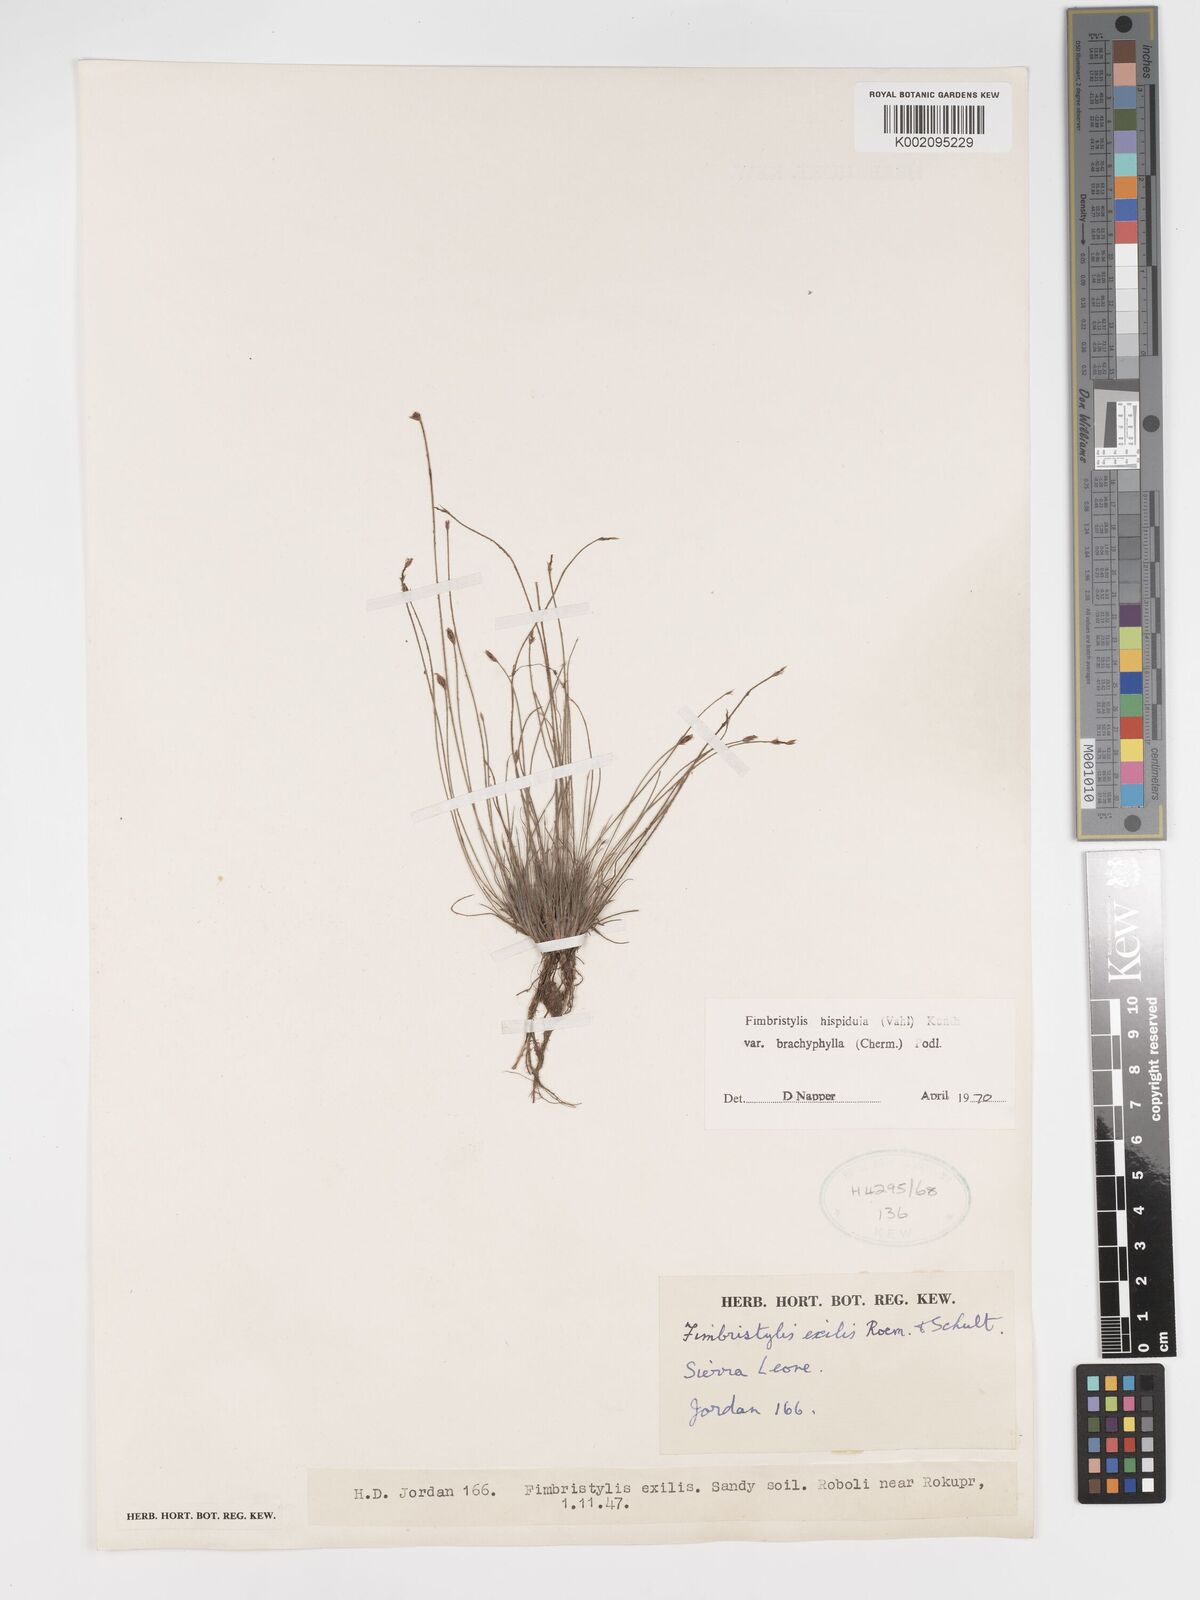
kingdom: Plantae
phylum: Tracheophyta
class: Liliopsida
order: Poales
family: Cyperaceae
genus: Bulbostylis
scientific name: Bulbostylis hispidula
